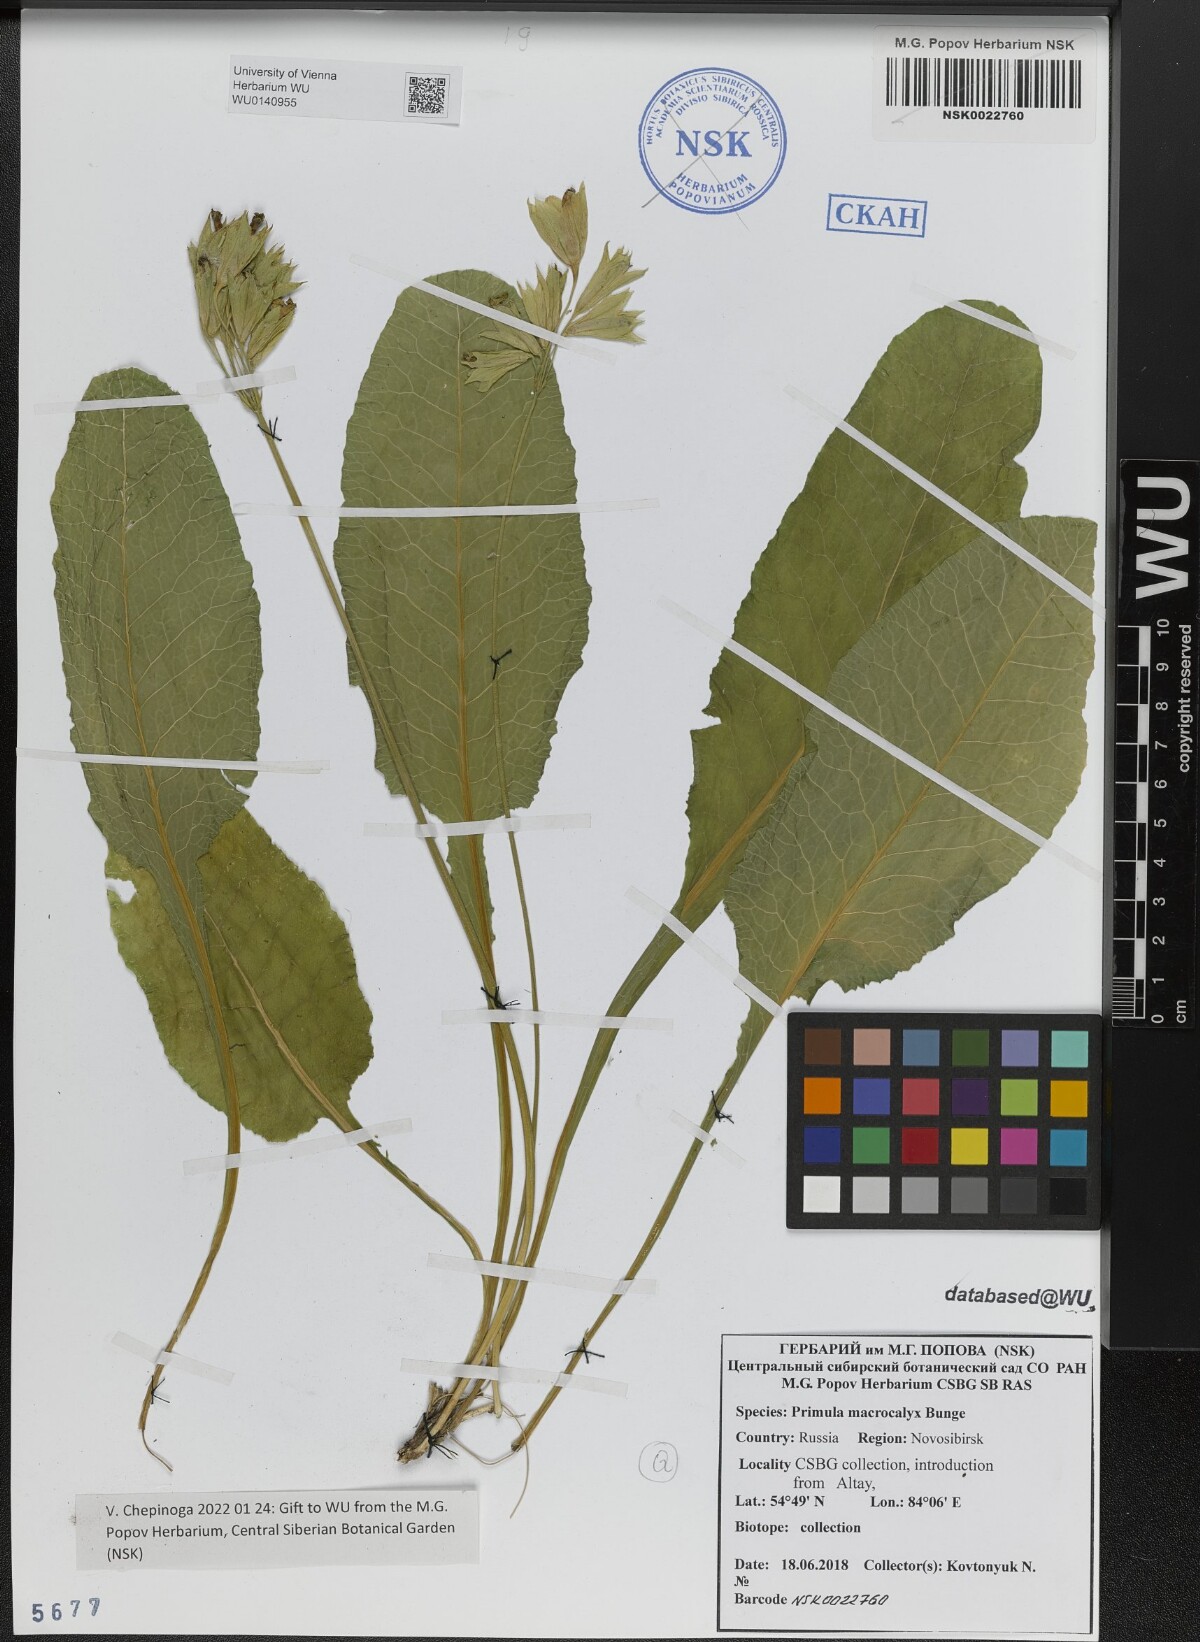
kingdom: Plantae
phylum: Tracheophyta
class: Magnoliopsida
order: Ericales
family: Primulaceae
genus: Primula
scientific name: Primula veris
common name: Cowslip
